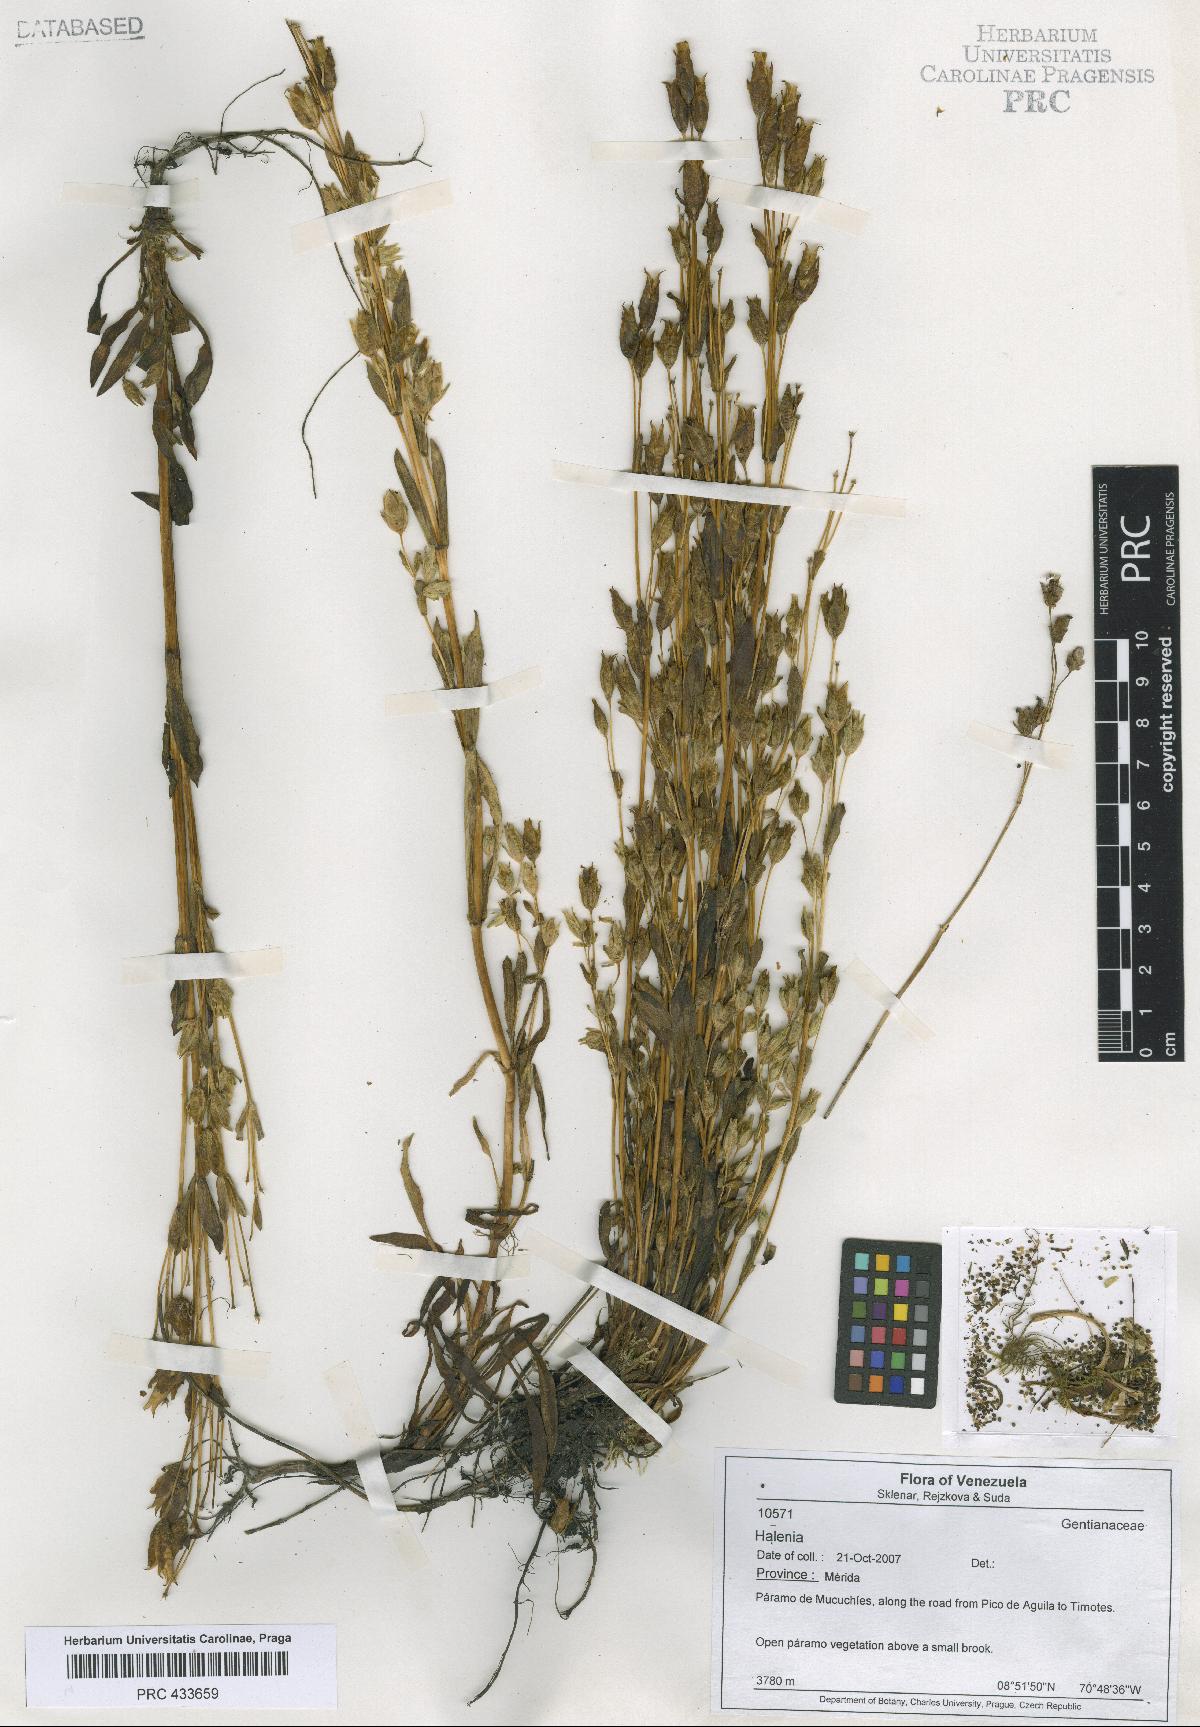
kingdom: Plantae
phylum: Tracheophyta
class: Magnoliopsida
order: Gentianales
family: Gentianaceae
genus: Halenia
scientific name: Halenia
